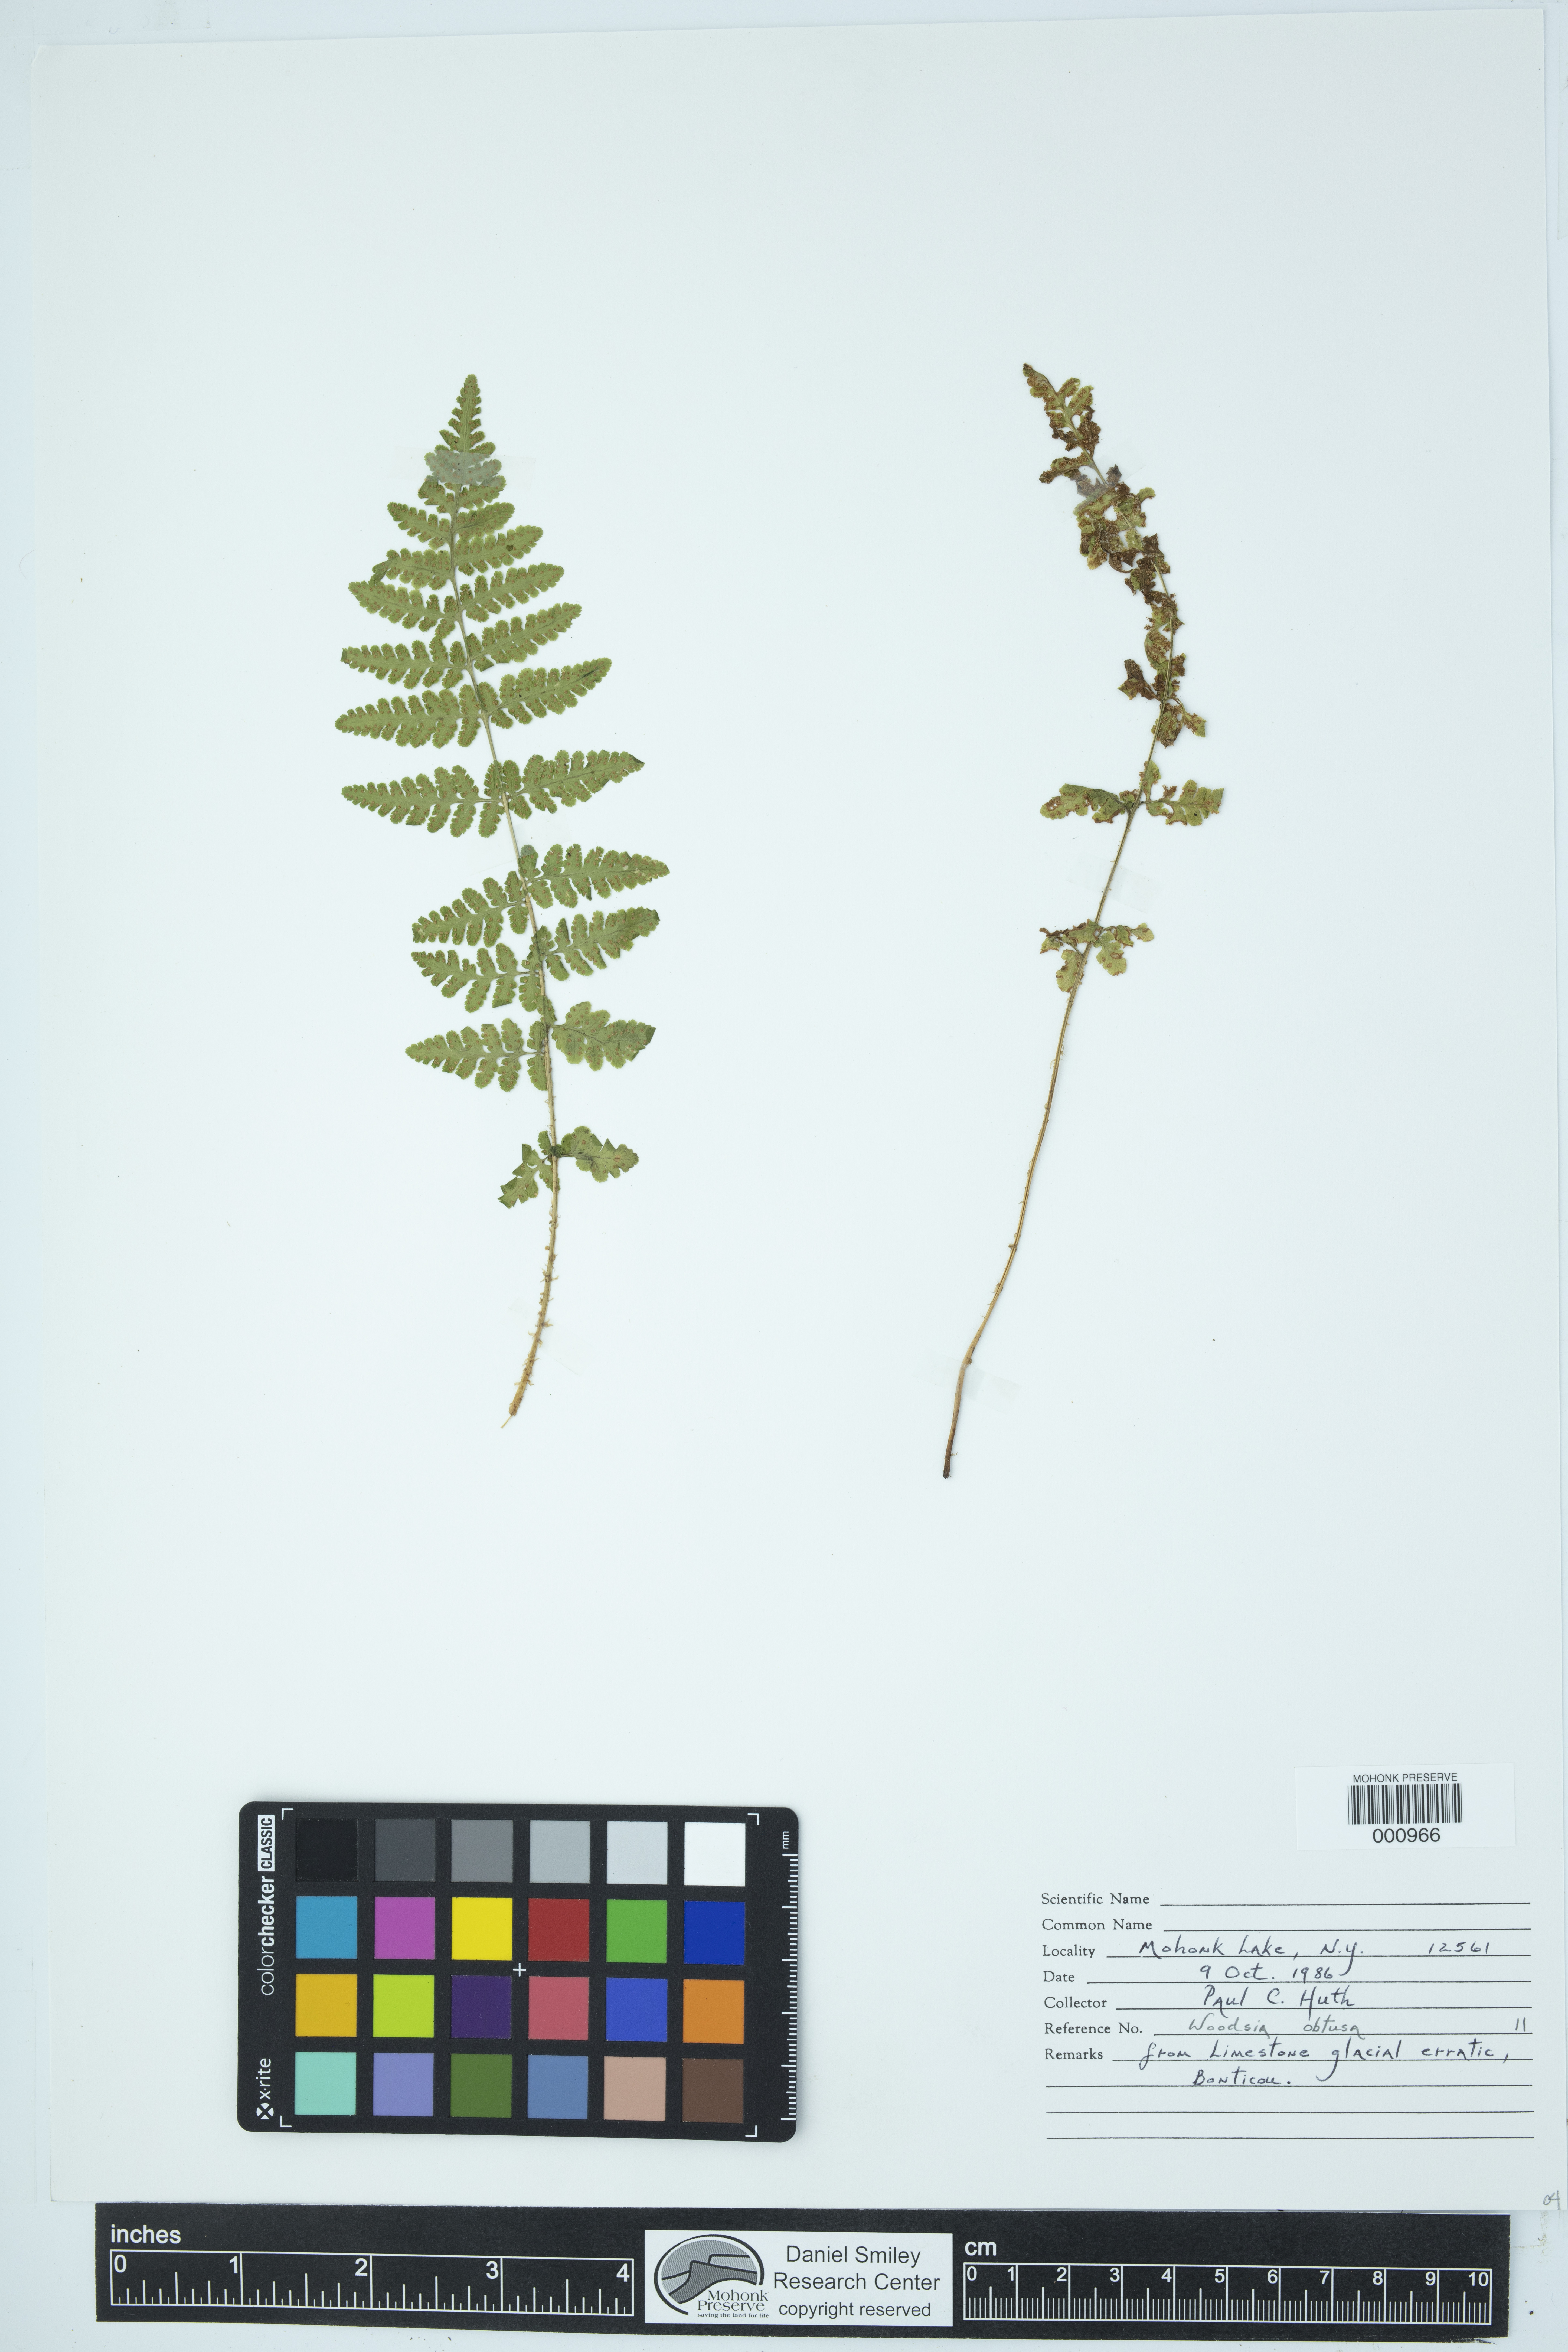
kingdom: Plantae
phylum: Tracheophyta
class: Polypodiopsida
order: Polypodiales
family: Woodsiaceae
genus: Physematium
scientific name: Physematium obtusum
